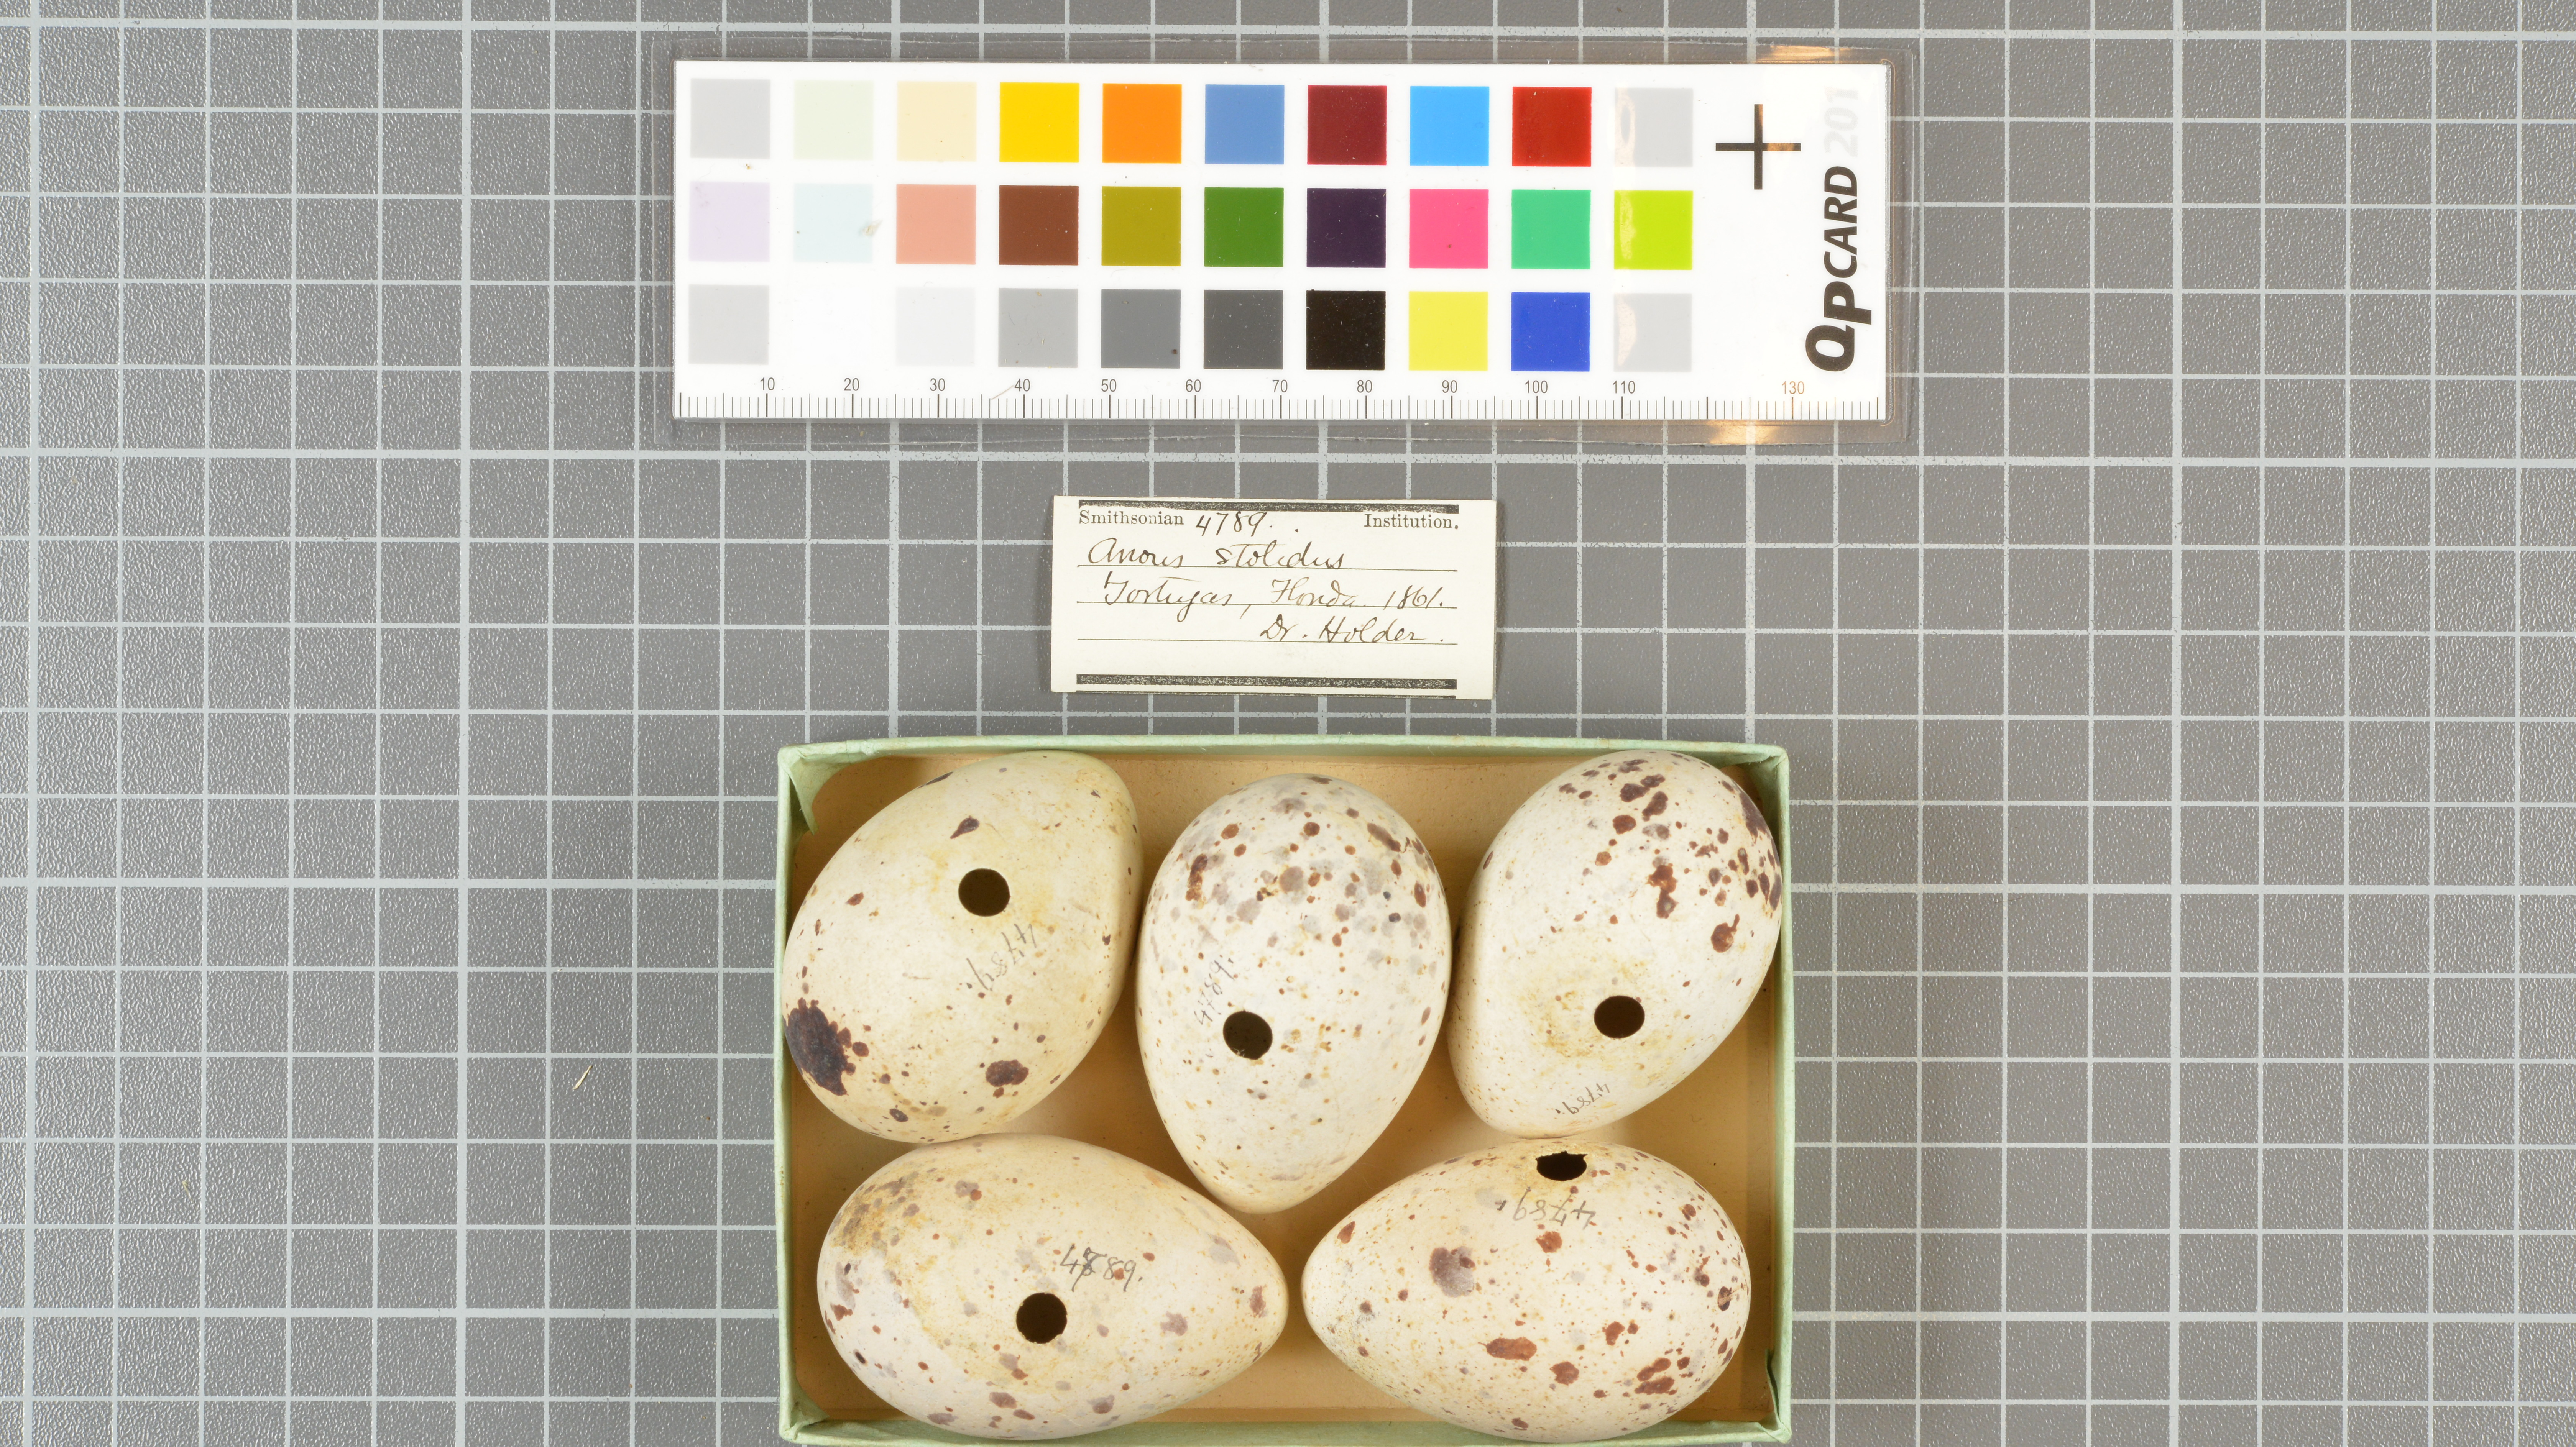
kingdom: Animalia
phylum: Chordata
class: Aves
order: Charadriiformes
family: Laridae
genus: Anous
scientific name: Anous stolidus
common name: Brown noddy
